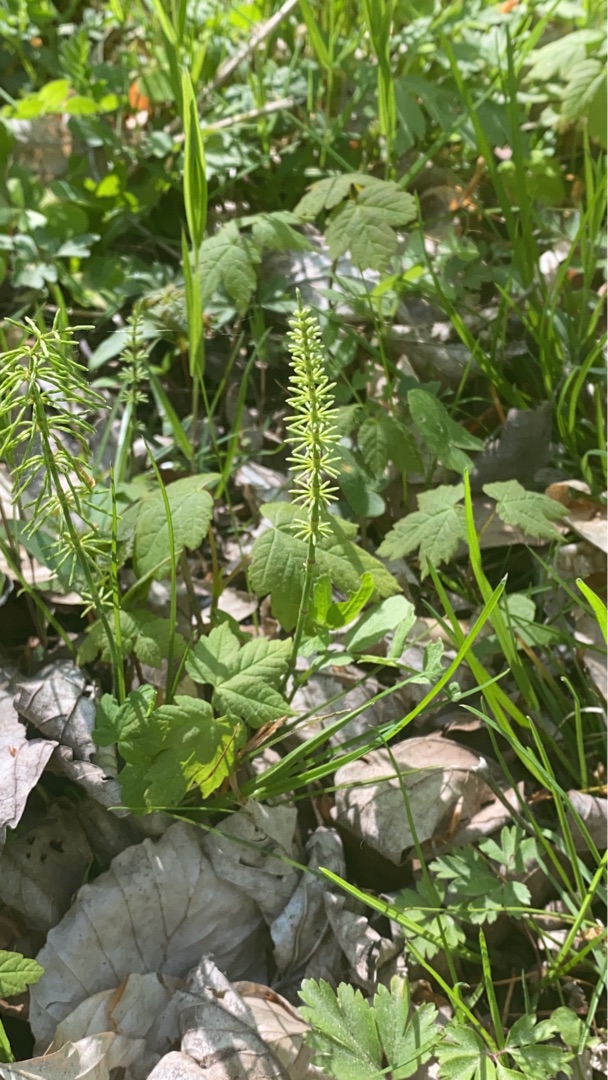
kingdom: Plantae
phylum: Tracheophyta
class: Polypodiopsida
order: Equisetales
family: Equisetaceae
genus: Equisetum
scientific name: Equisetum pratense
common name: Lund-padderok
